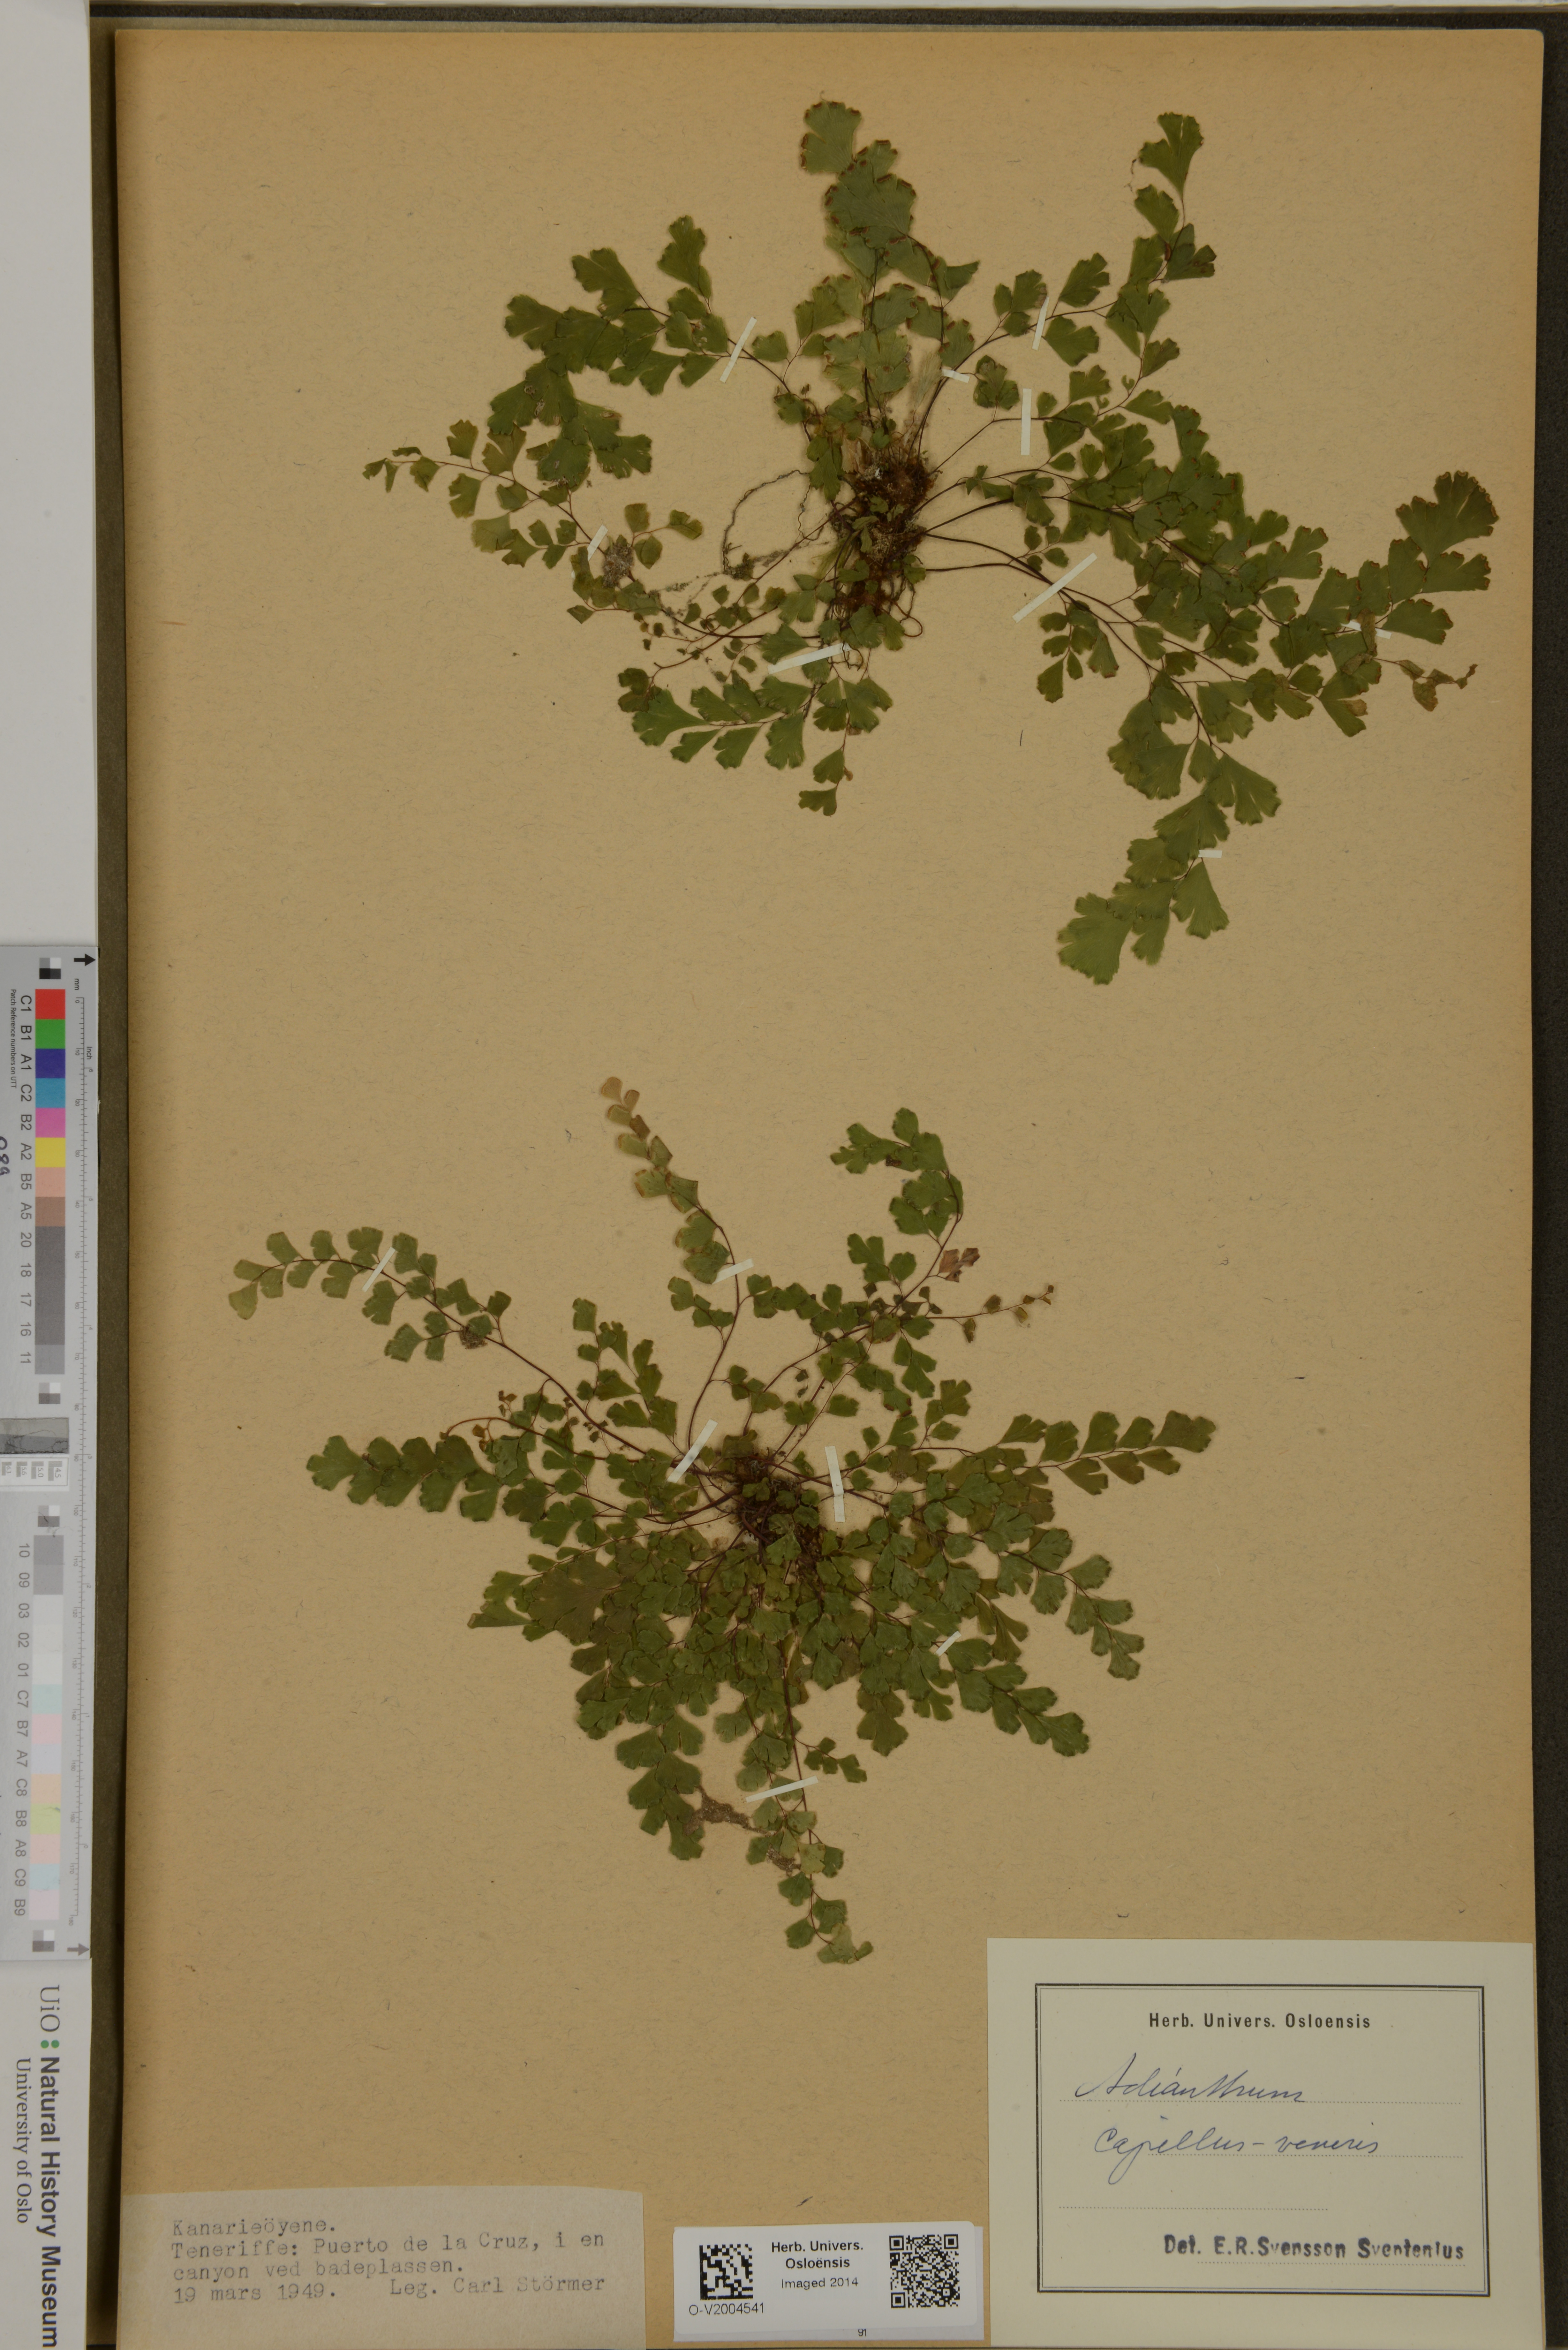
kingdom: Plantae
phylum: Tracheophyta
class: Polypodiopsida
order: Polypodiales
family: Pteridaceae
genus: Adiantum
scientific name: Adiantum capillus-veneris
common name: Maidenhair fern
